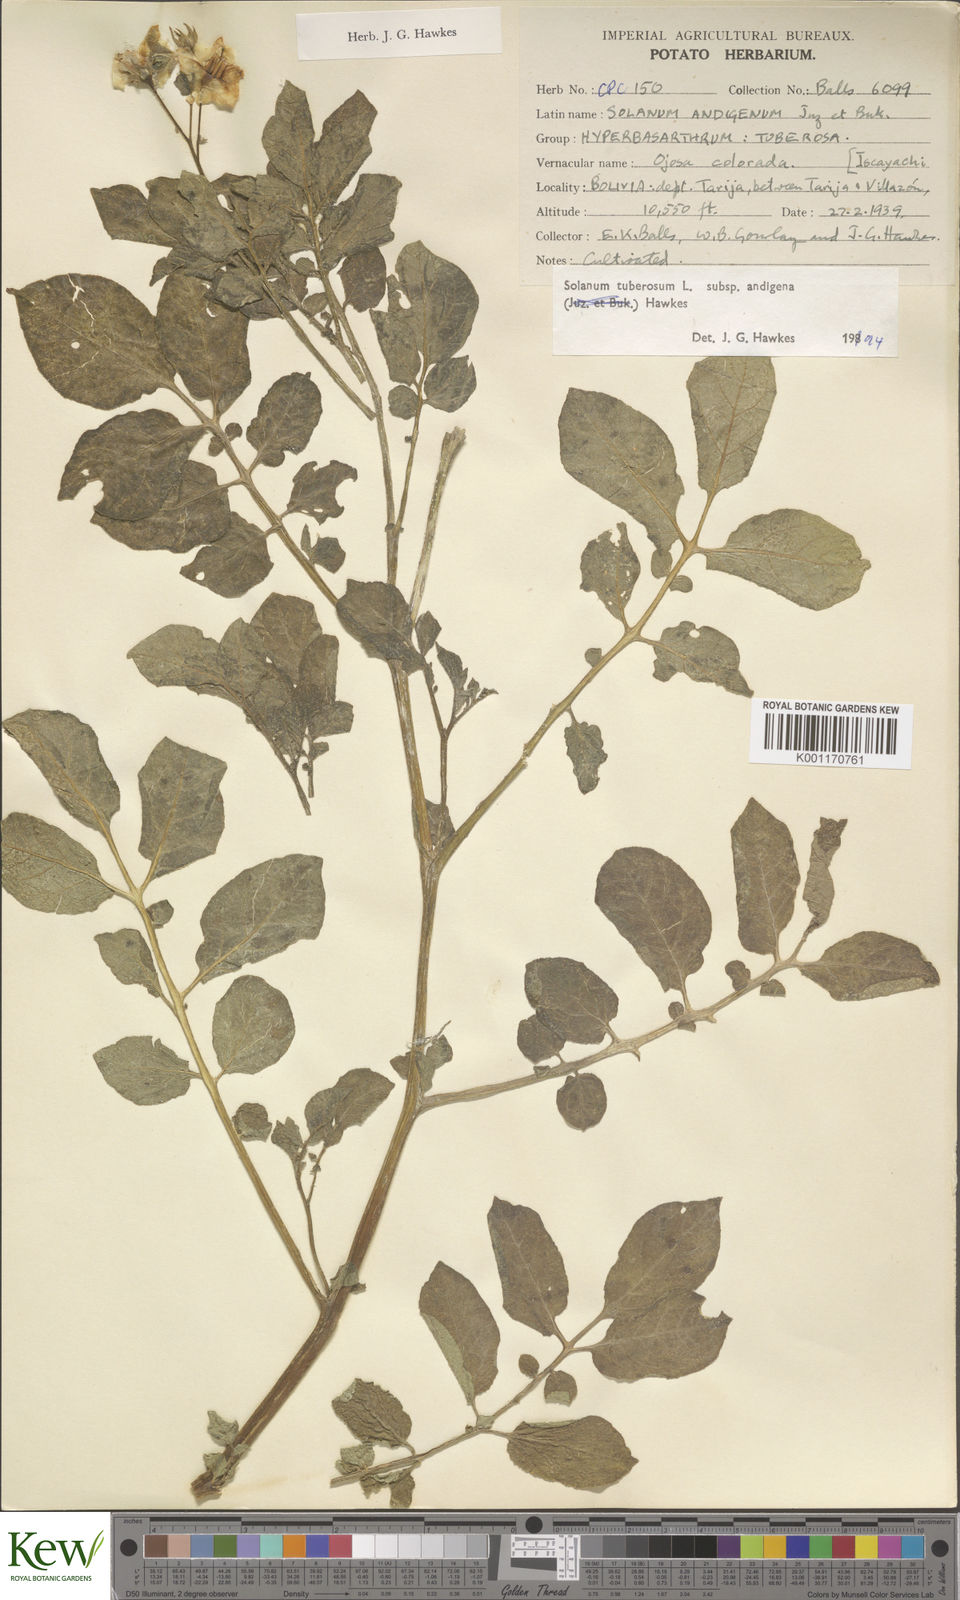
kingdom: Plantae
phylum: Tracheophyta
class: Magnoliopsida
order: Solanales
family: Solanaceae
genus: Solanum
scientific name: Solanum tuberosum
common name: Potato
